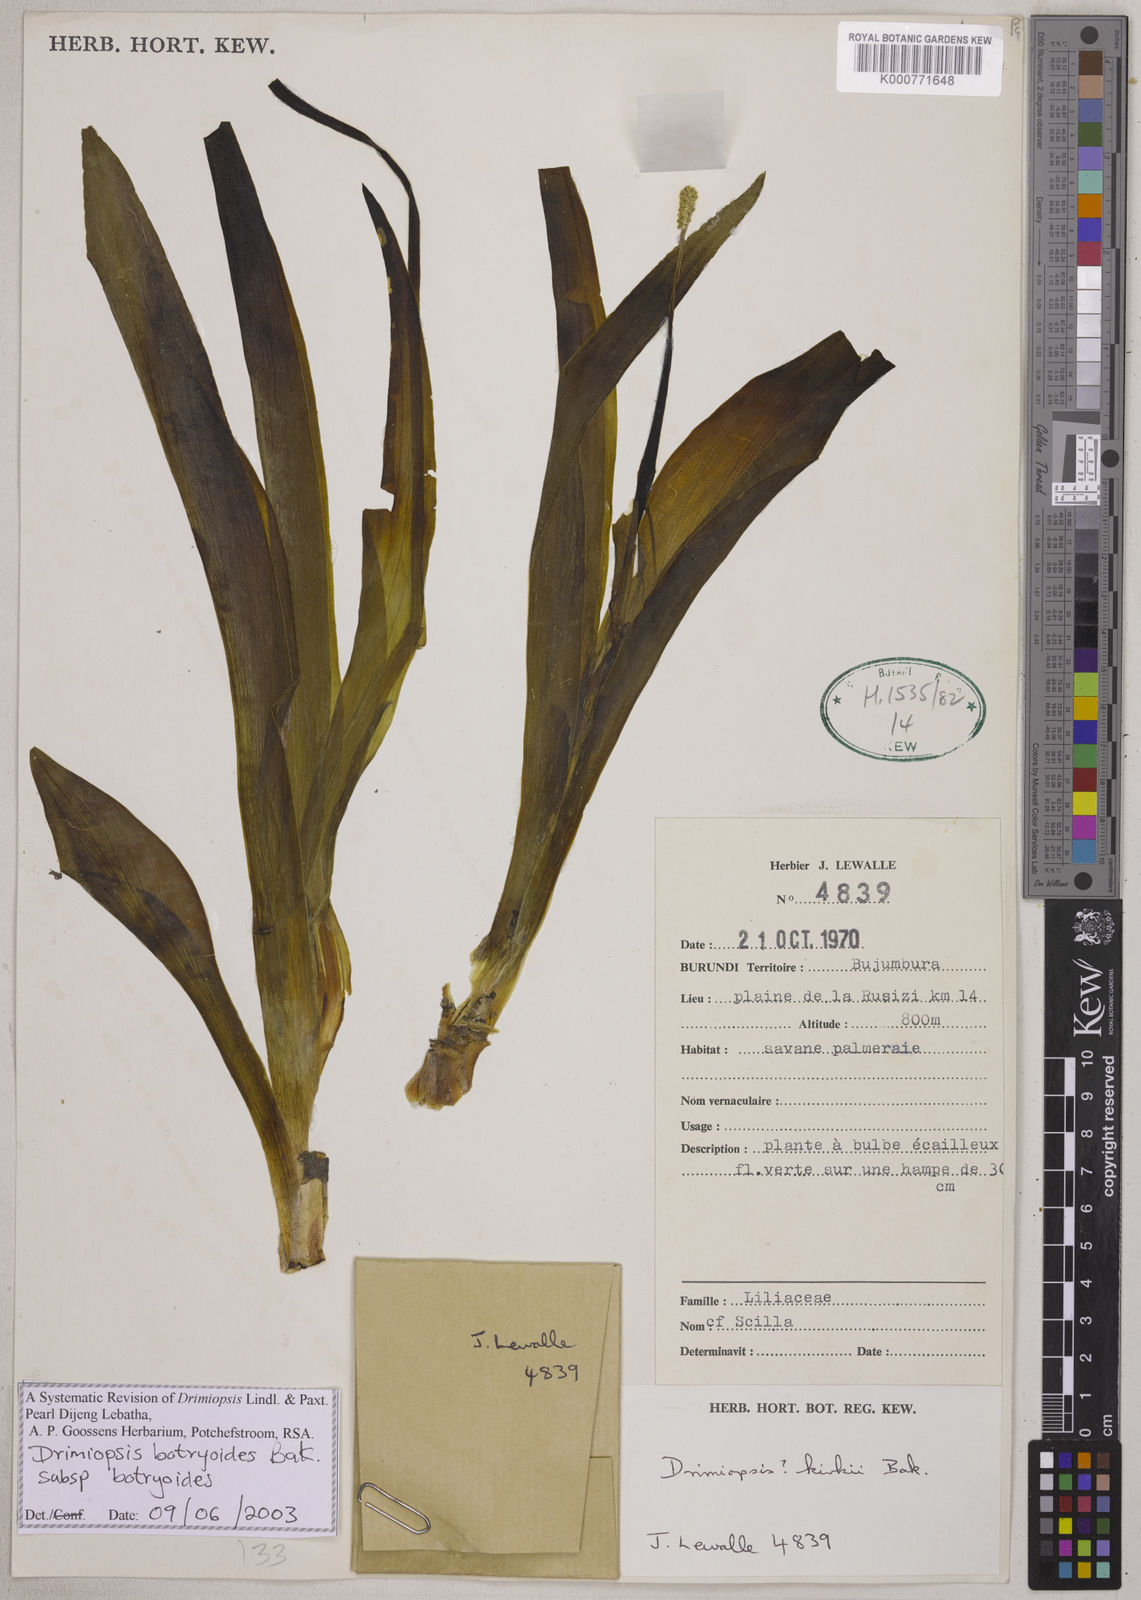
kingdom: Plantae
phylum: Tracheophyta
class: Liliopsida
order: Asparagales
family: Asparagaceae
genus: Drimiopsis
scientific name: Drimiopsis botryoides
